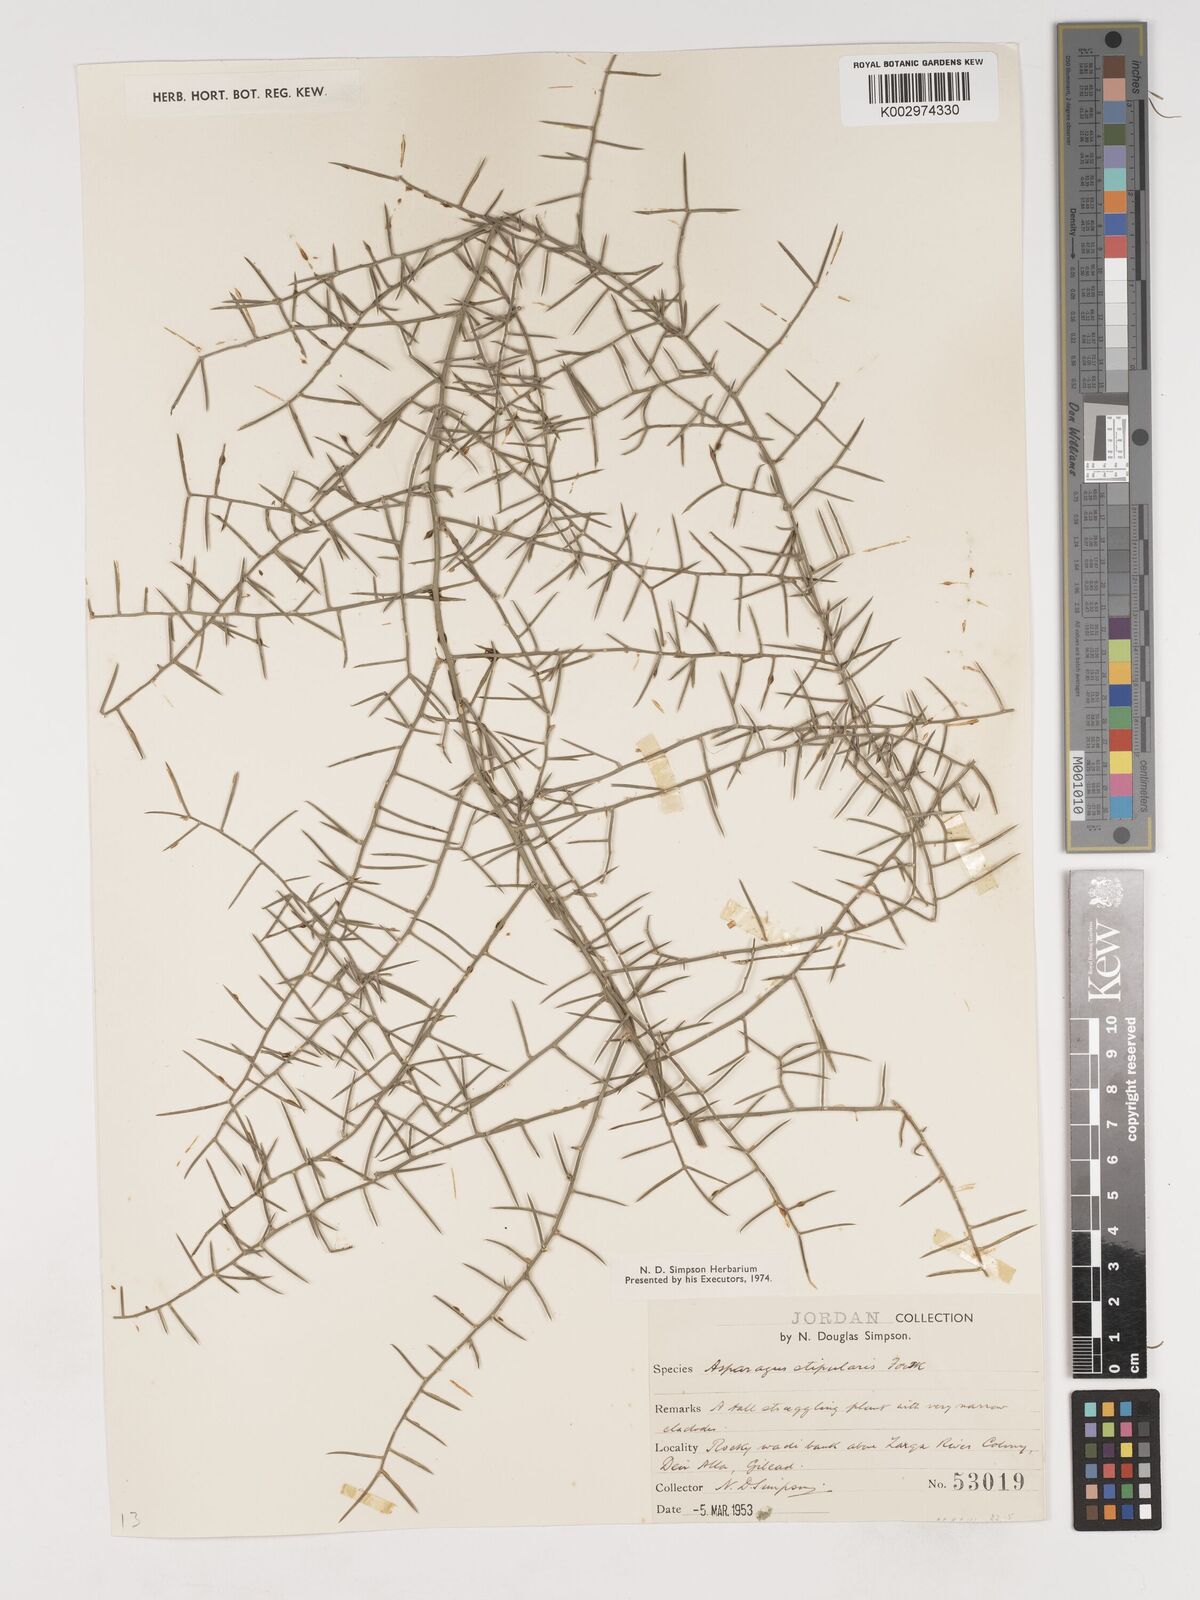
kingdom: Plantae
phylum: Tracheophyta
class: Liliopsida
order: Asparagales
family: Asparagaceae
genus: Asparagus
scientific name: Asparagus horridus
